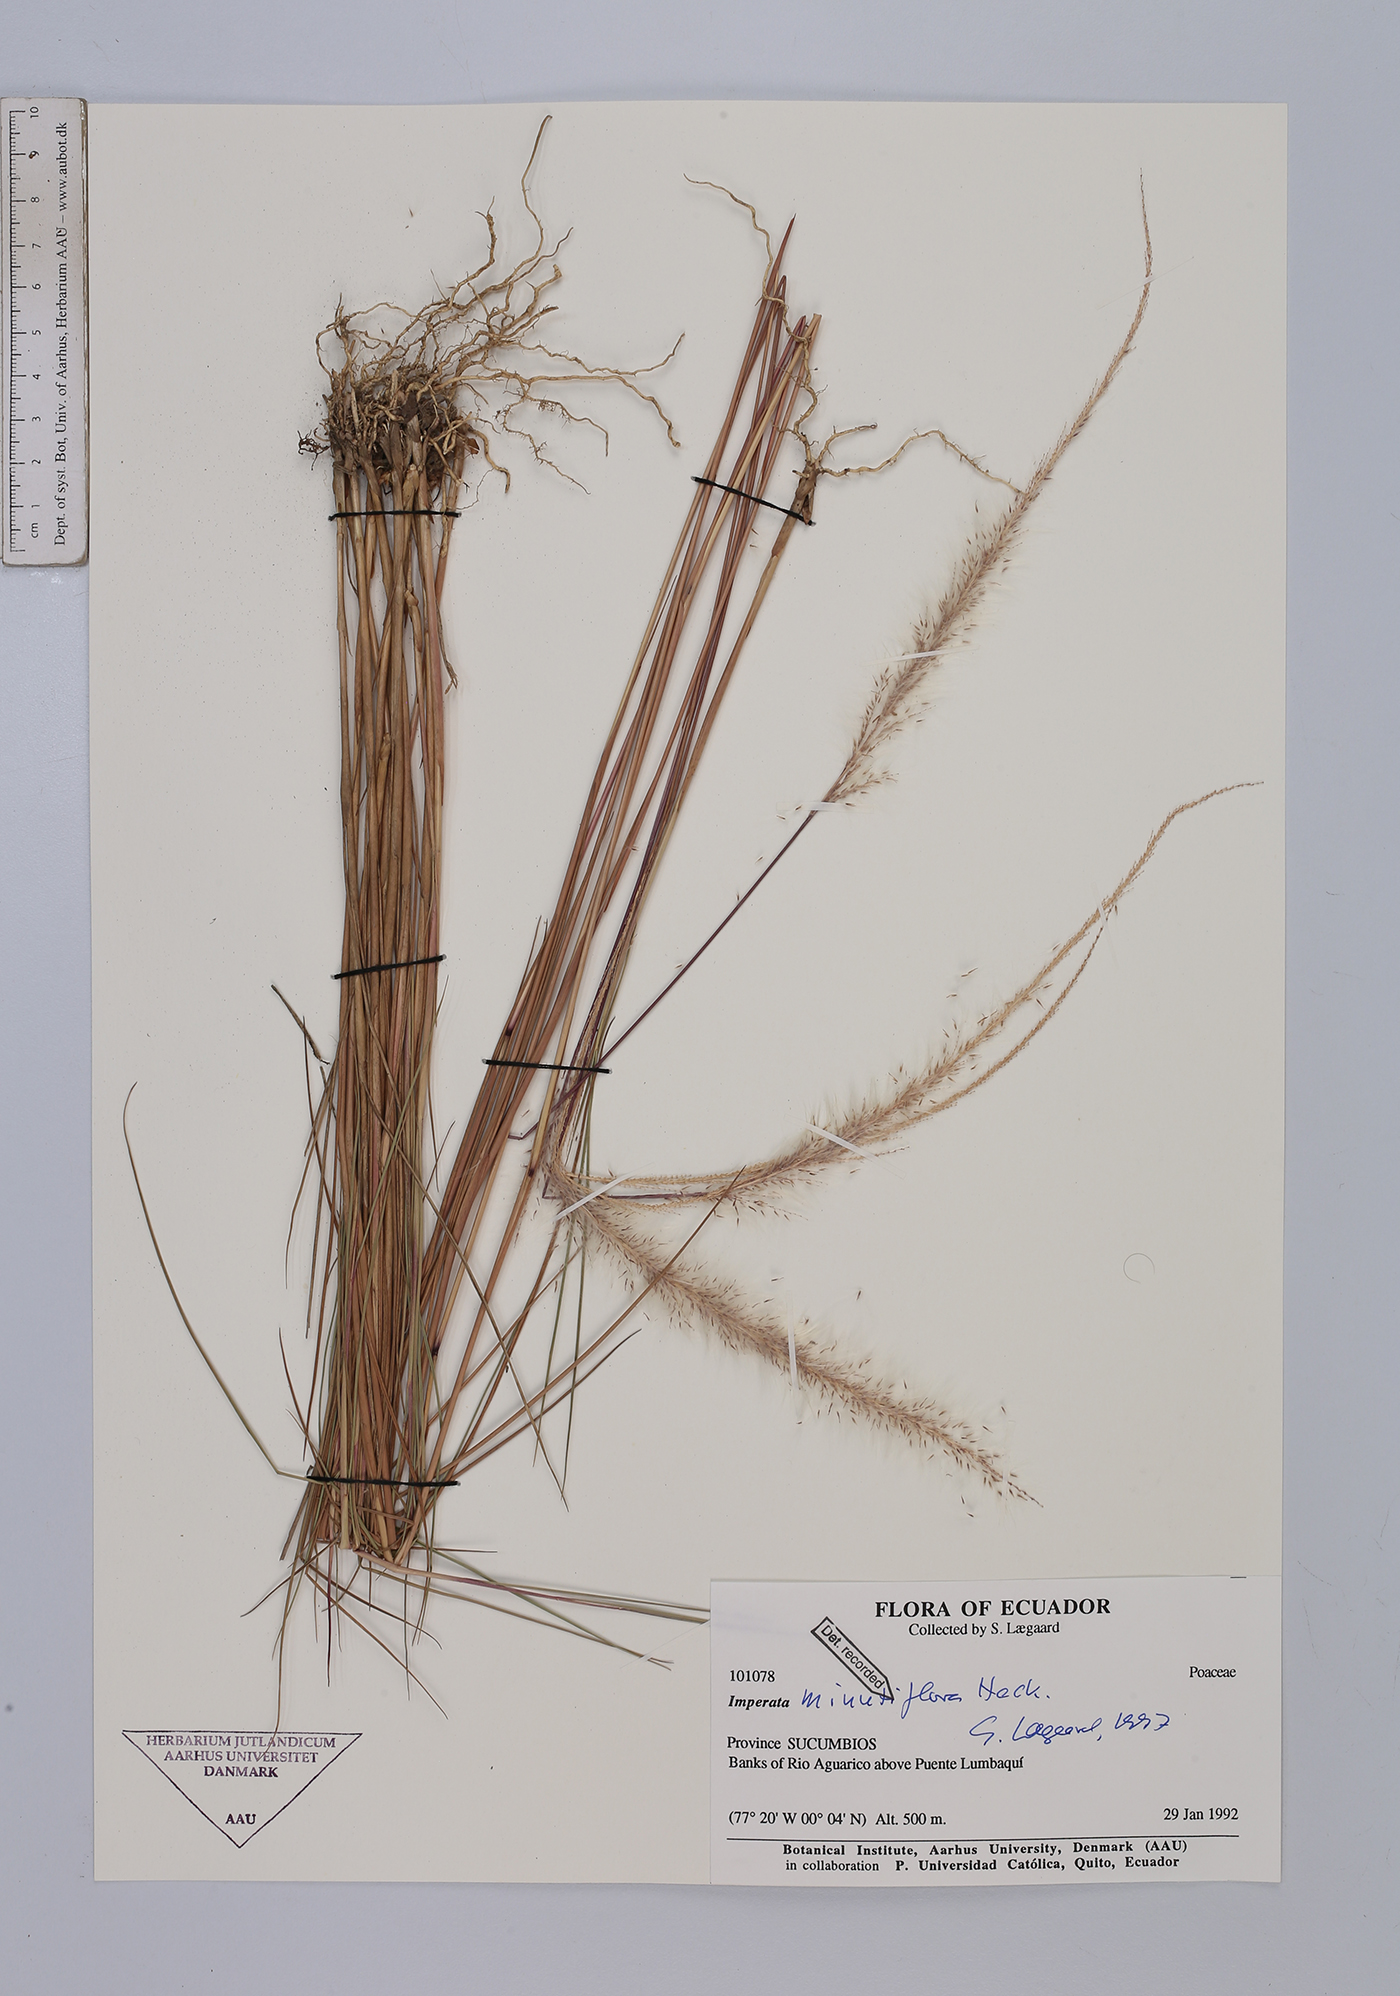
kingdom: Plantae
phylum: Tracheophyta
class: Liliopsida
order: Poales
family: Poaceae
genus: Imperata
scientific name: Imperata minutiflora
